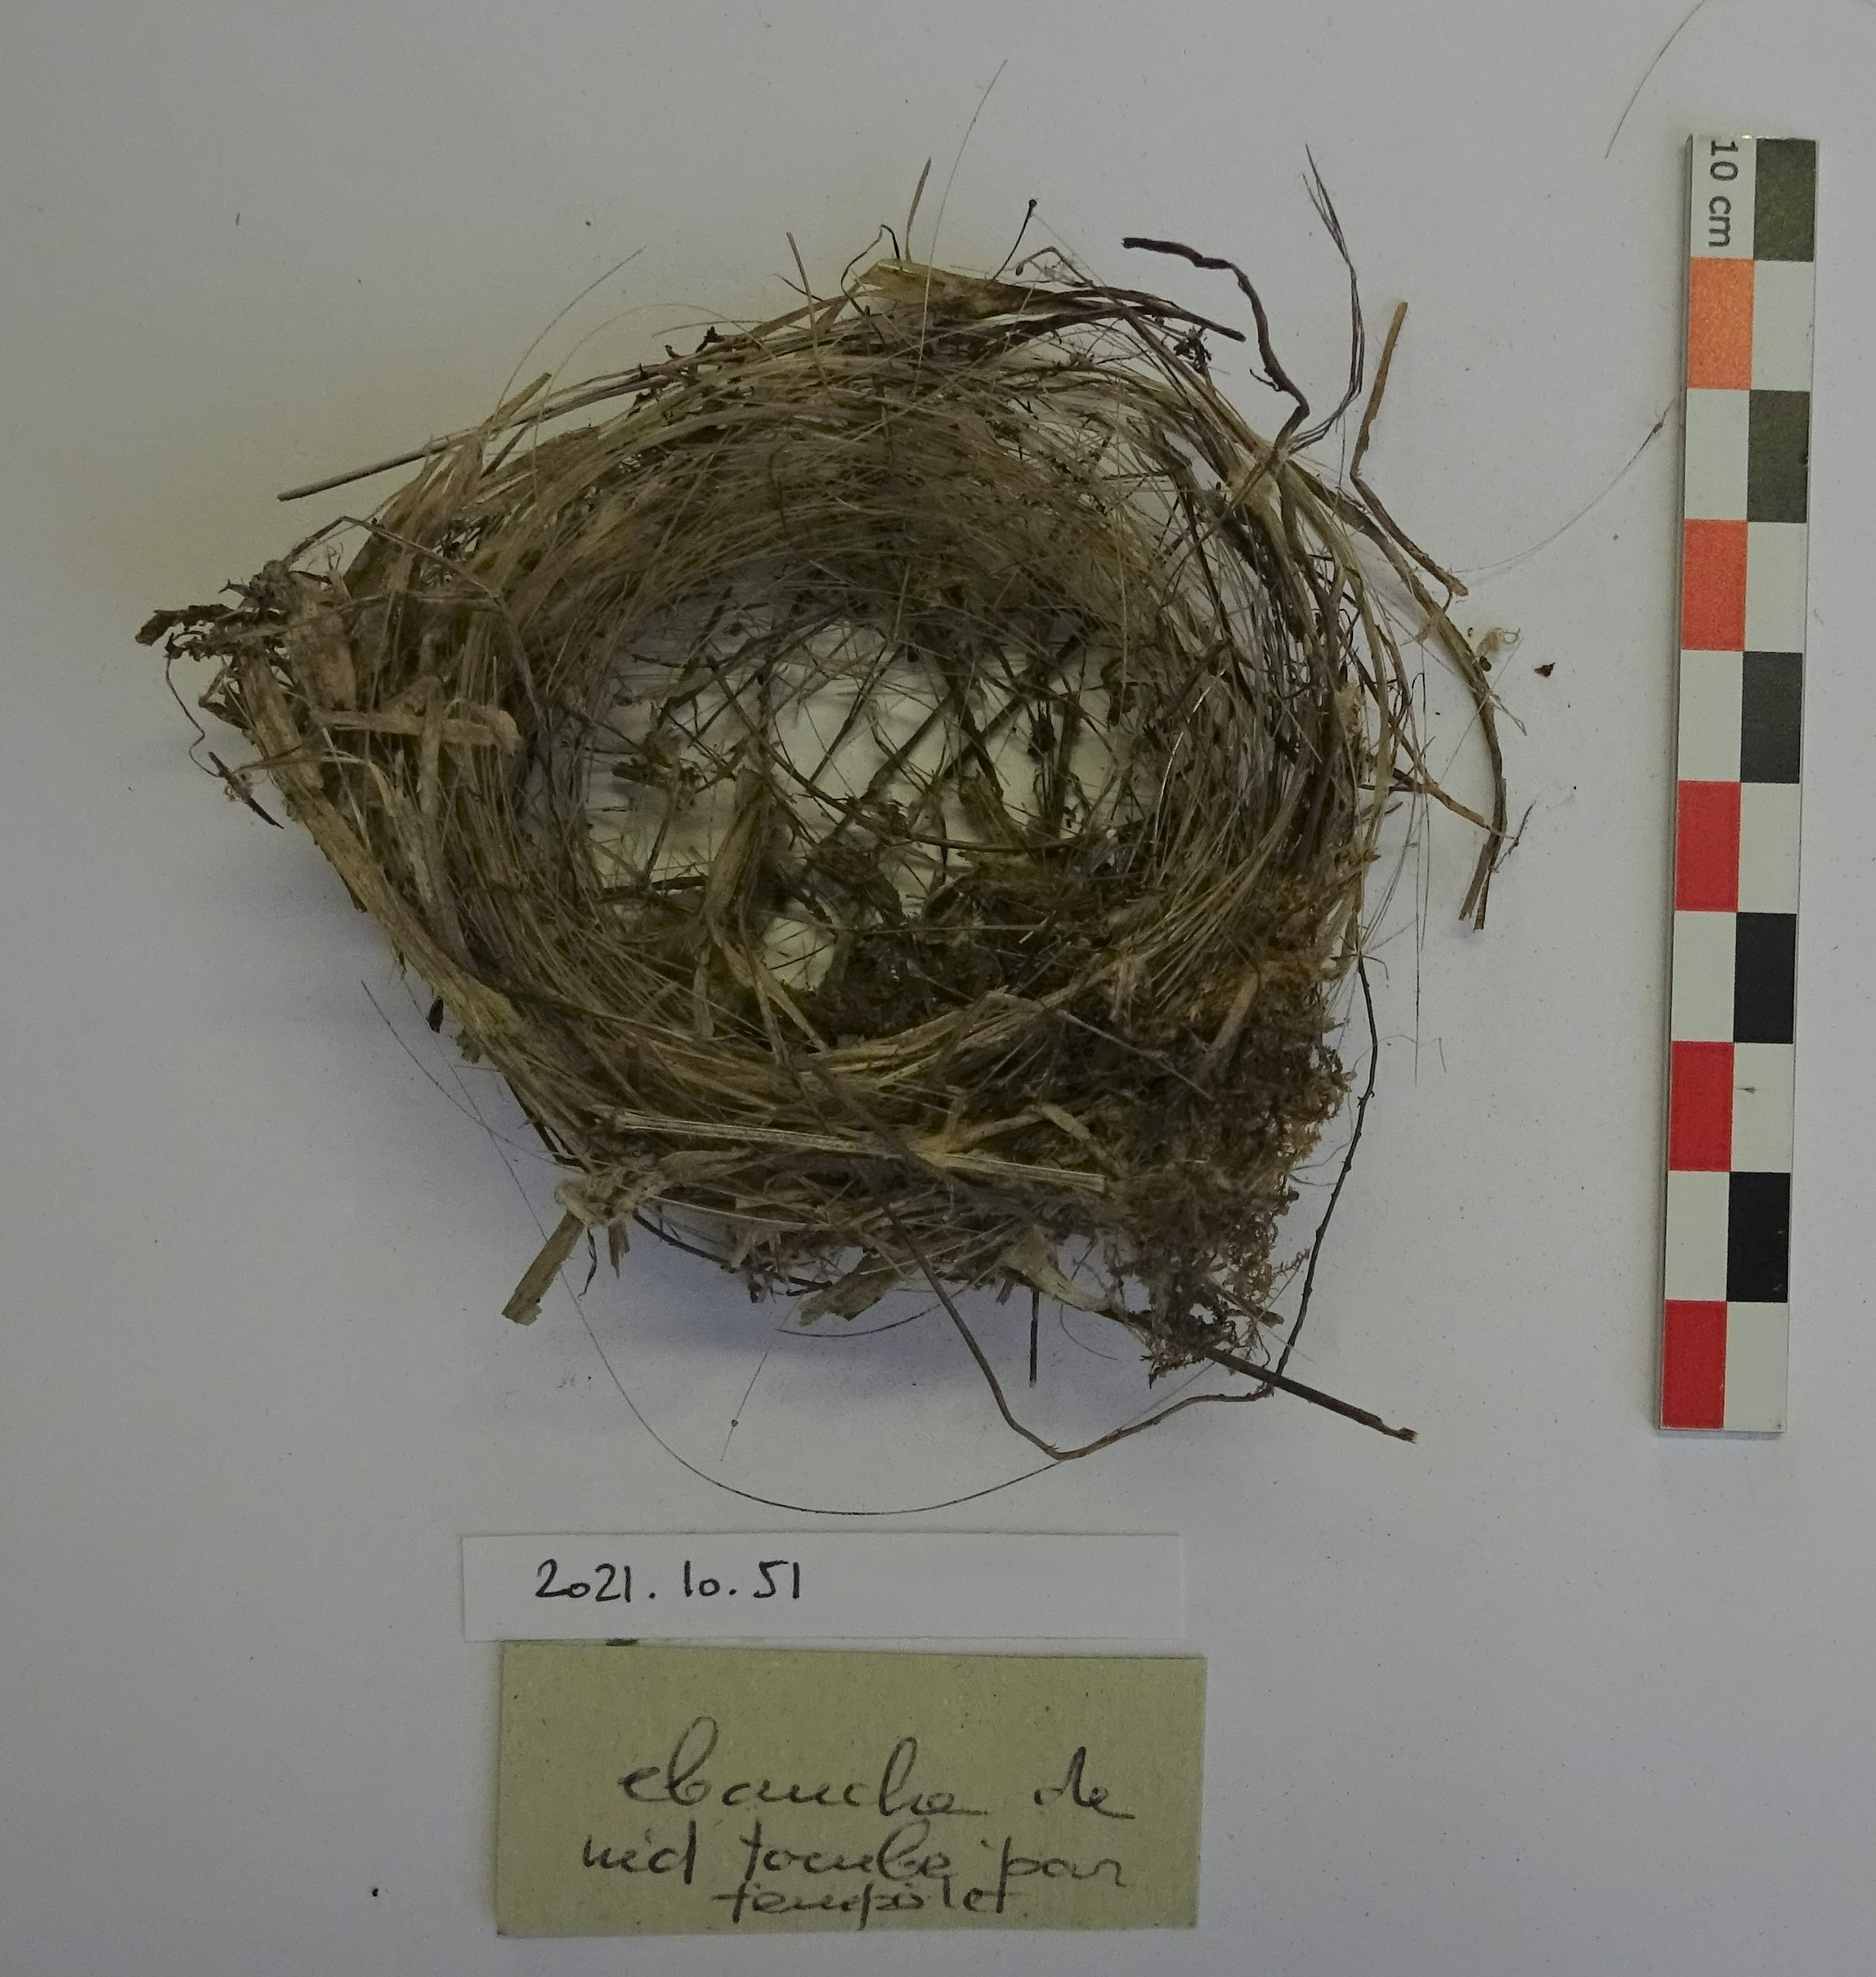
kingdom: Animalia
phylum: Chordata
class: Aves
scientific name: Aves
